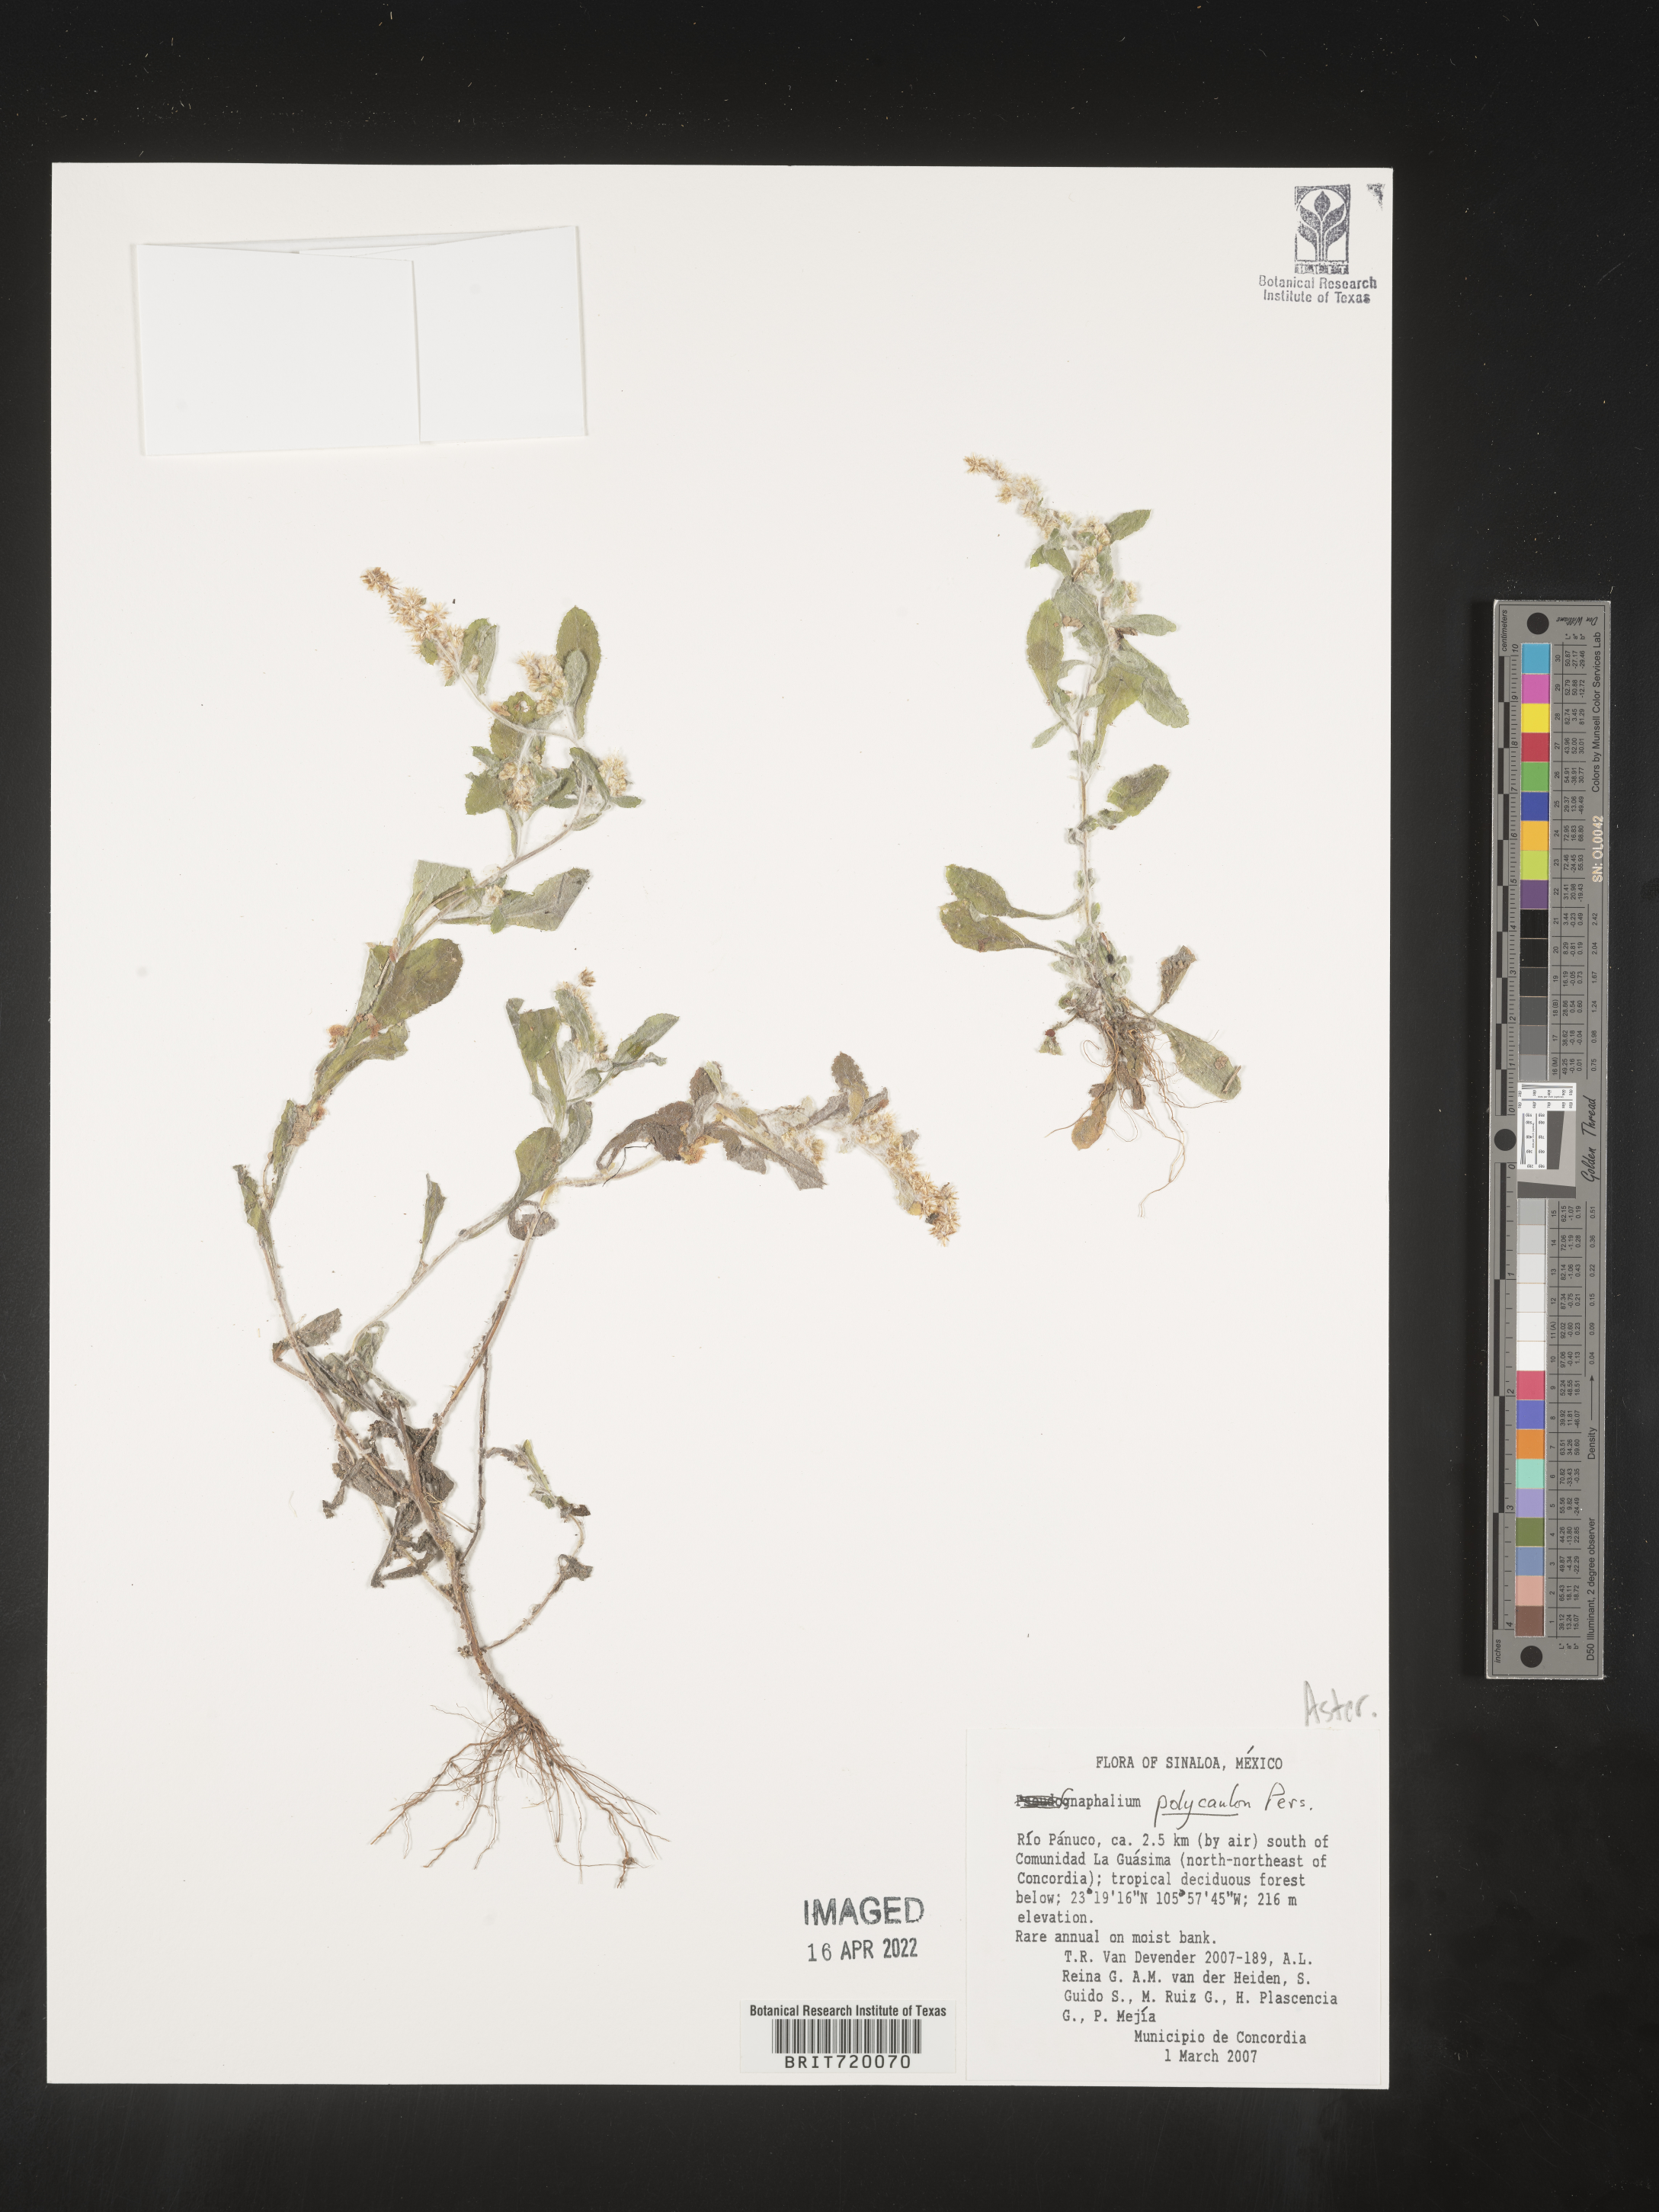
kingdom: Plantae
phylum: Tracheophyta
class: Magnoliopsida
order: Asterales
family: Asteraceae
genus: Gnaphalium
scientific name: Gnaphalium
